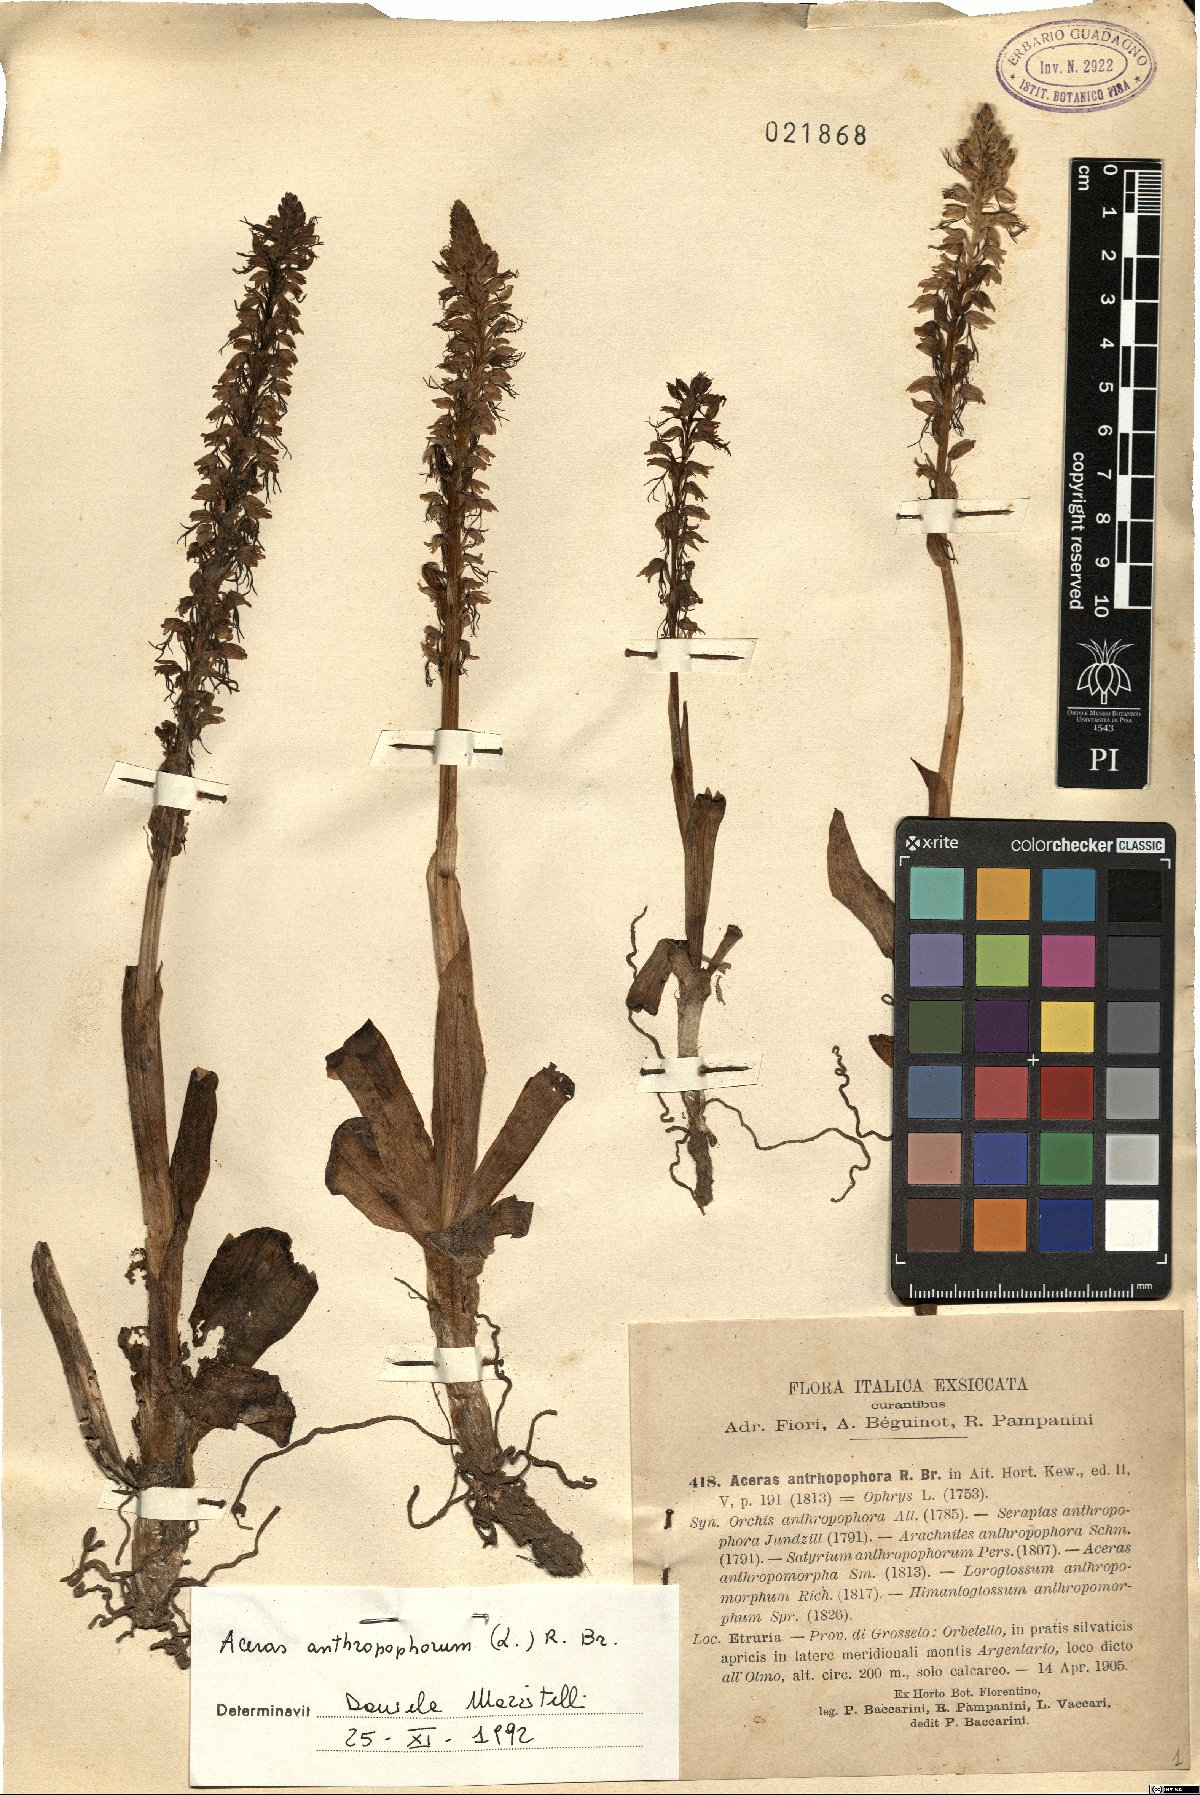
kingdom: Plantae
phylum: Tracheophyta
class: Liliopsida
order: Asparagales
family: Orchidaceae
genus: Orchis
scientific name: Orchis anthropophora
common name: Man orchid
